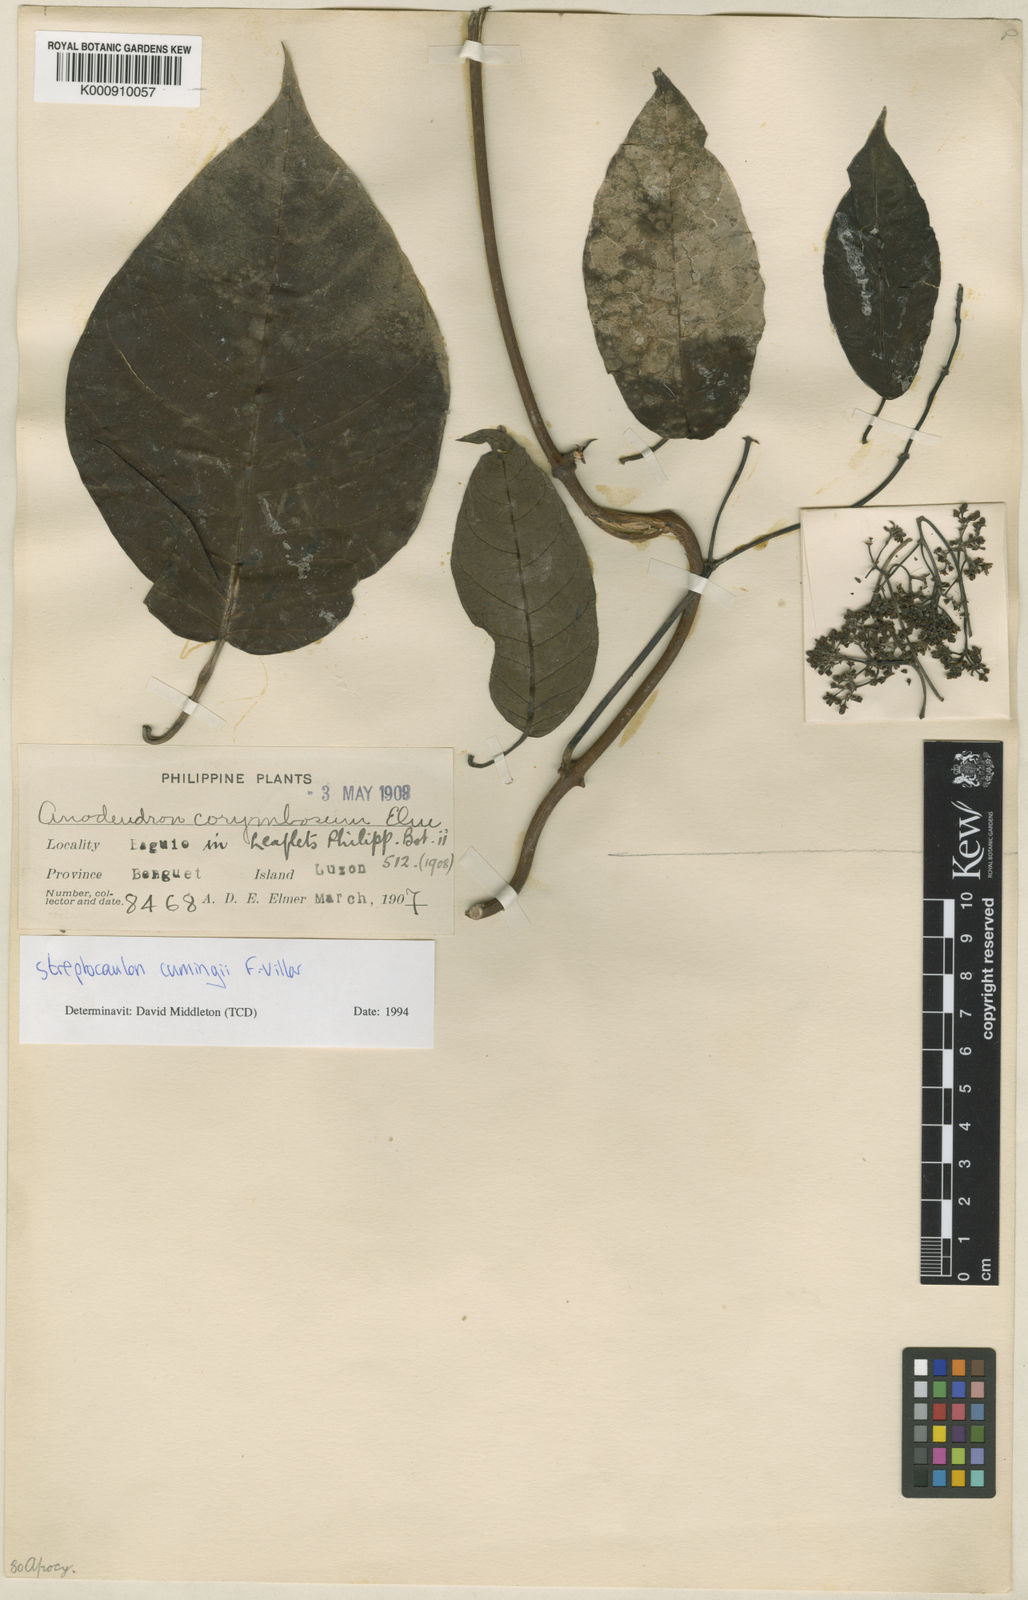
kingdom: Plantae
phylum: Tracheophyta
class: Magnoliopsida
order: Gentianales
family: Apocynaceae
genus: Streptocaulon
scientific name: Streptocaulon cumingii
